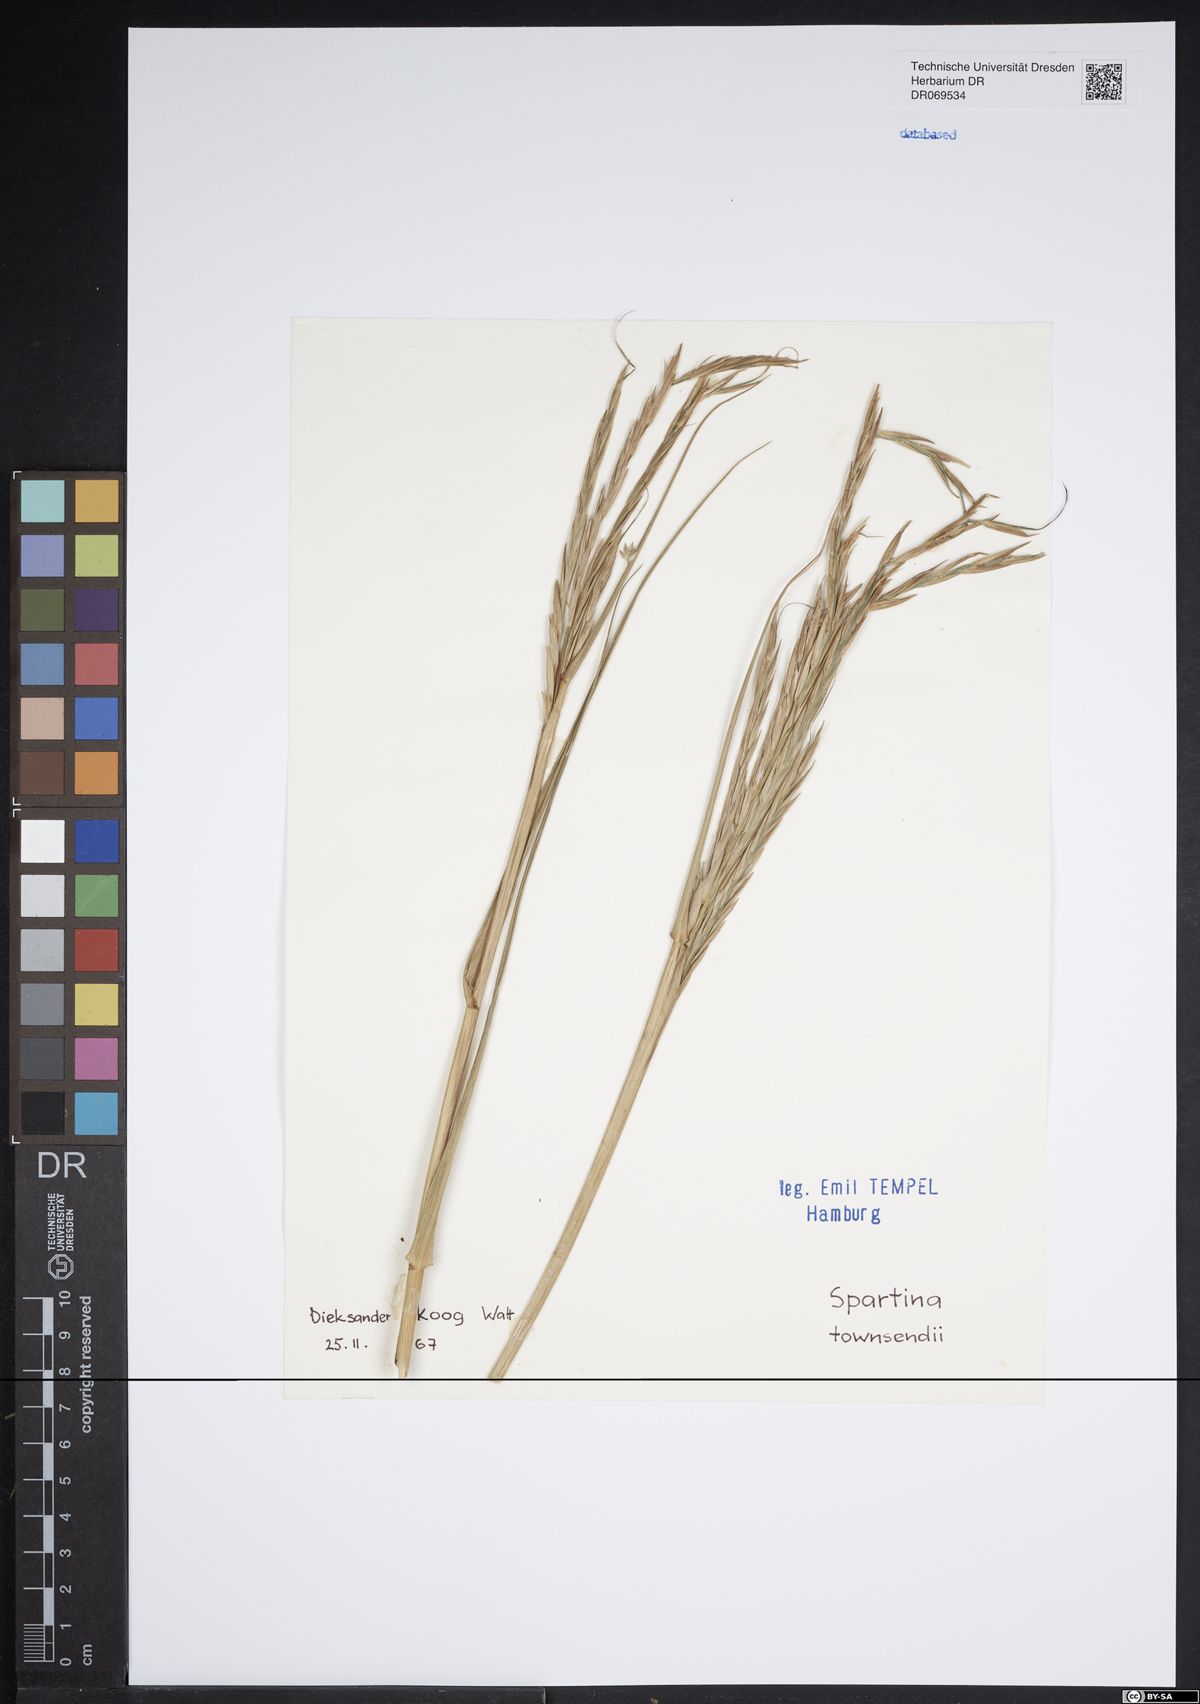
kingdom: Plantae
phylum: Tracheophyta
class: Liliopsida
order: Poales
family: Poaceae
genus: Sporobolus
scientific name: Sporobolus townsendii
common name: Townsend's cordgrass
